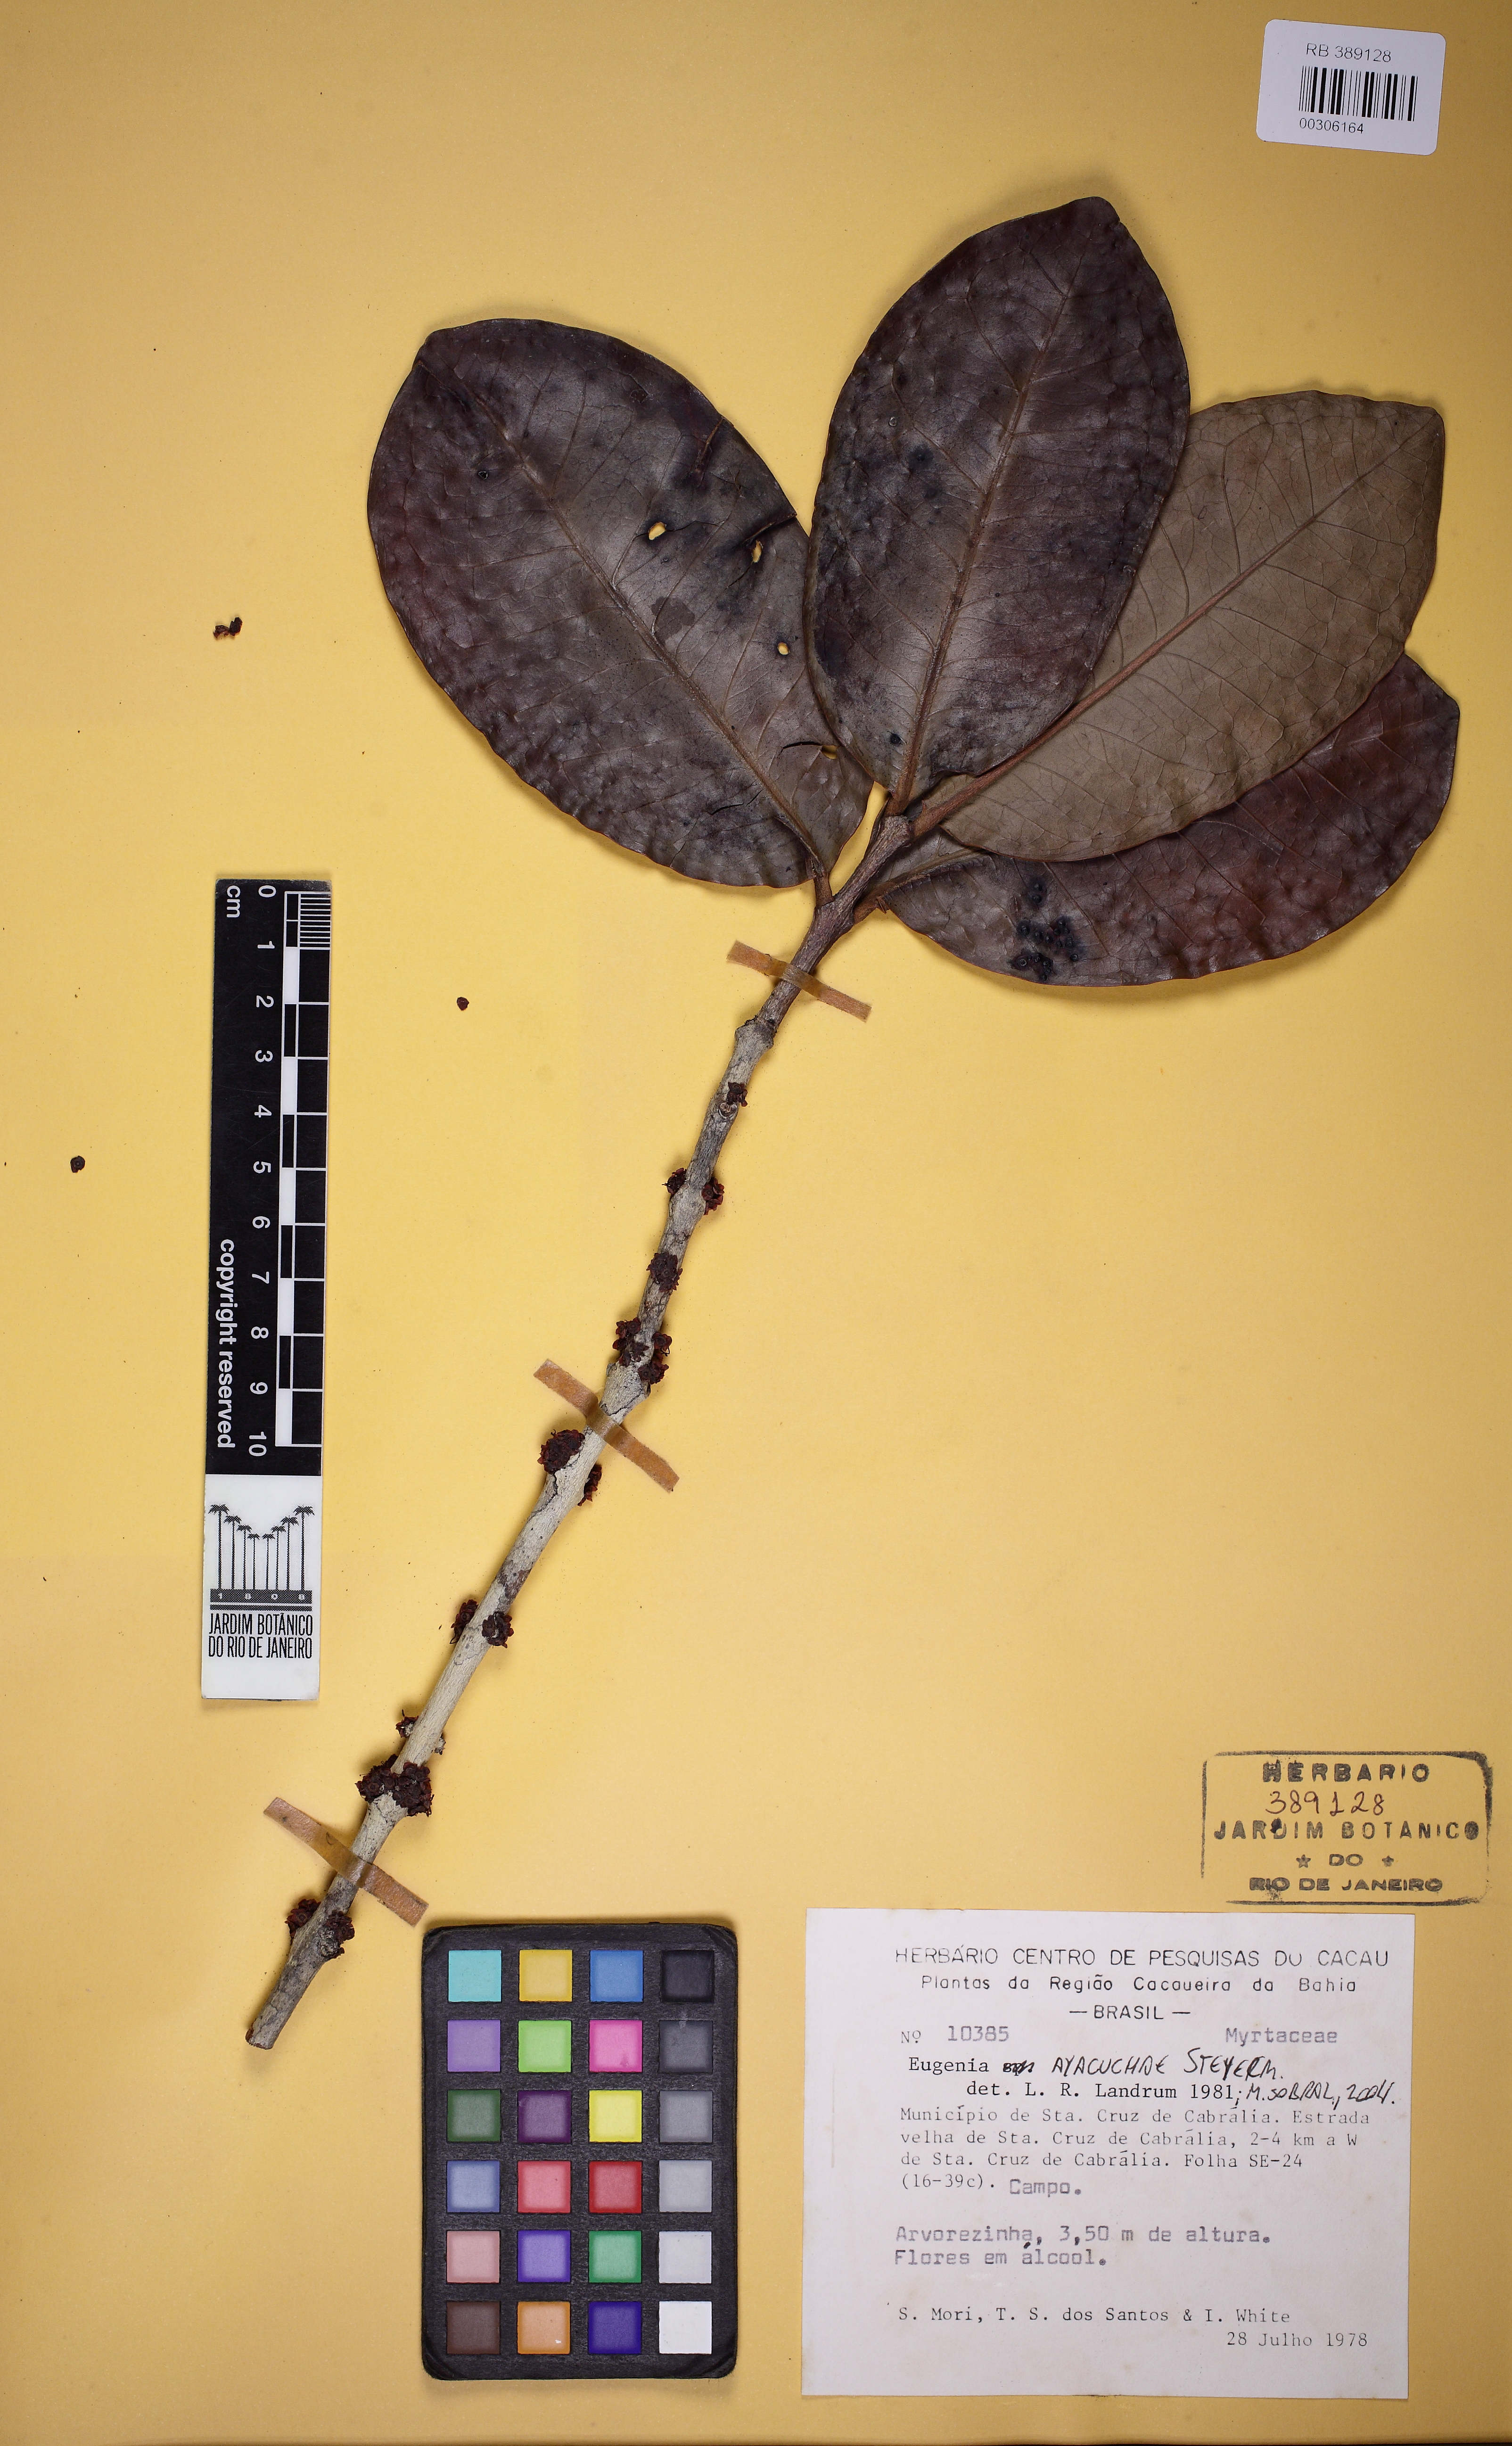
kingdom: Plantae
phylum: Tracheophyta
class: Magnoliopsida
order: Myrtales
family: Myrtaceae
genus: Eugenia
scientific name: Eugenia ayacuchae
